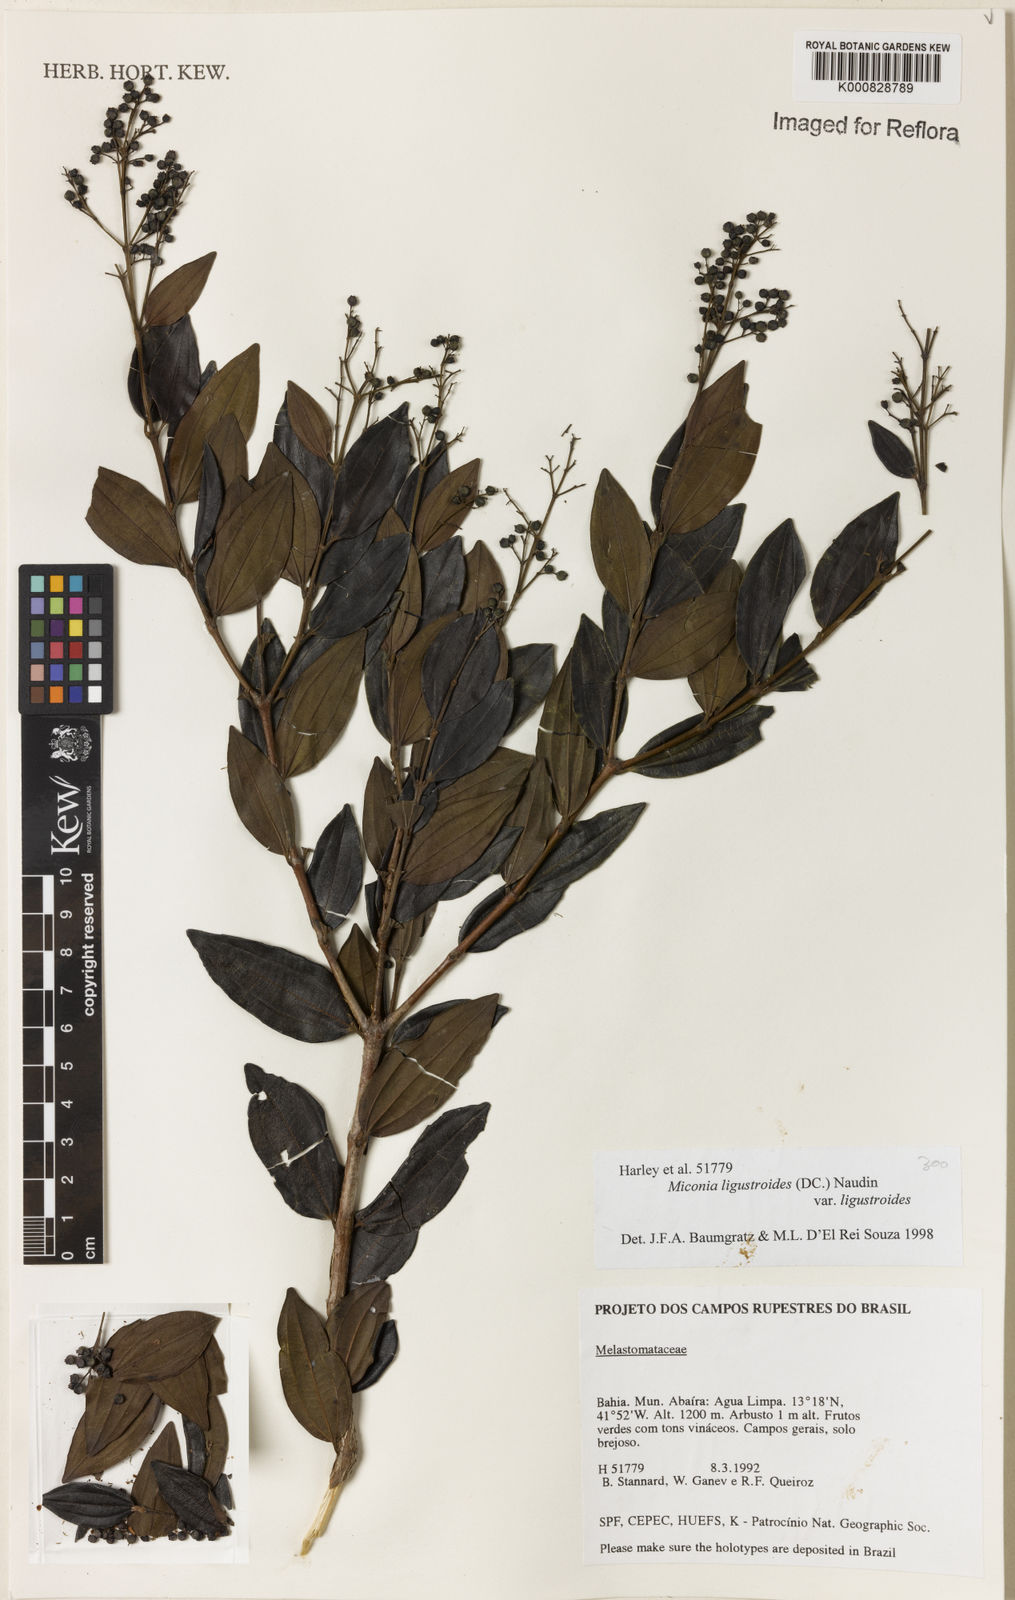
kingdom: Plantae
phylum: Tracheophyta
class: Magnoliopsida
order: Myrtales
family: Melastomataceae
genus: Miconia
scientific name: Miconia ligustroides
